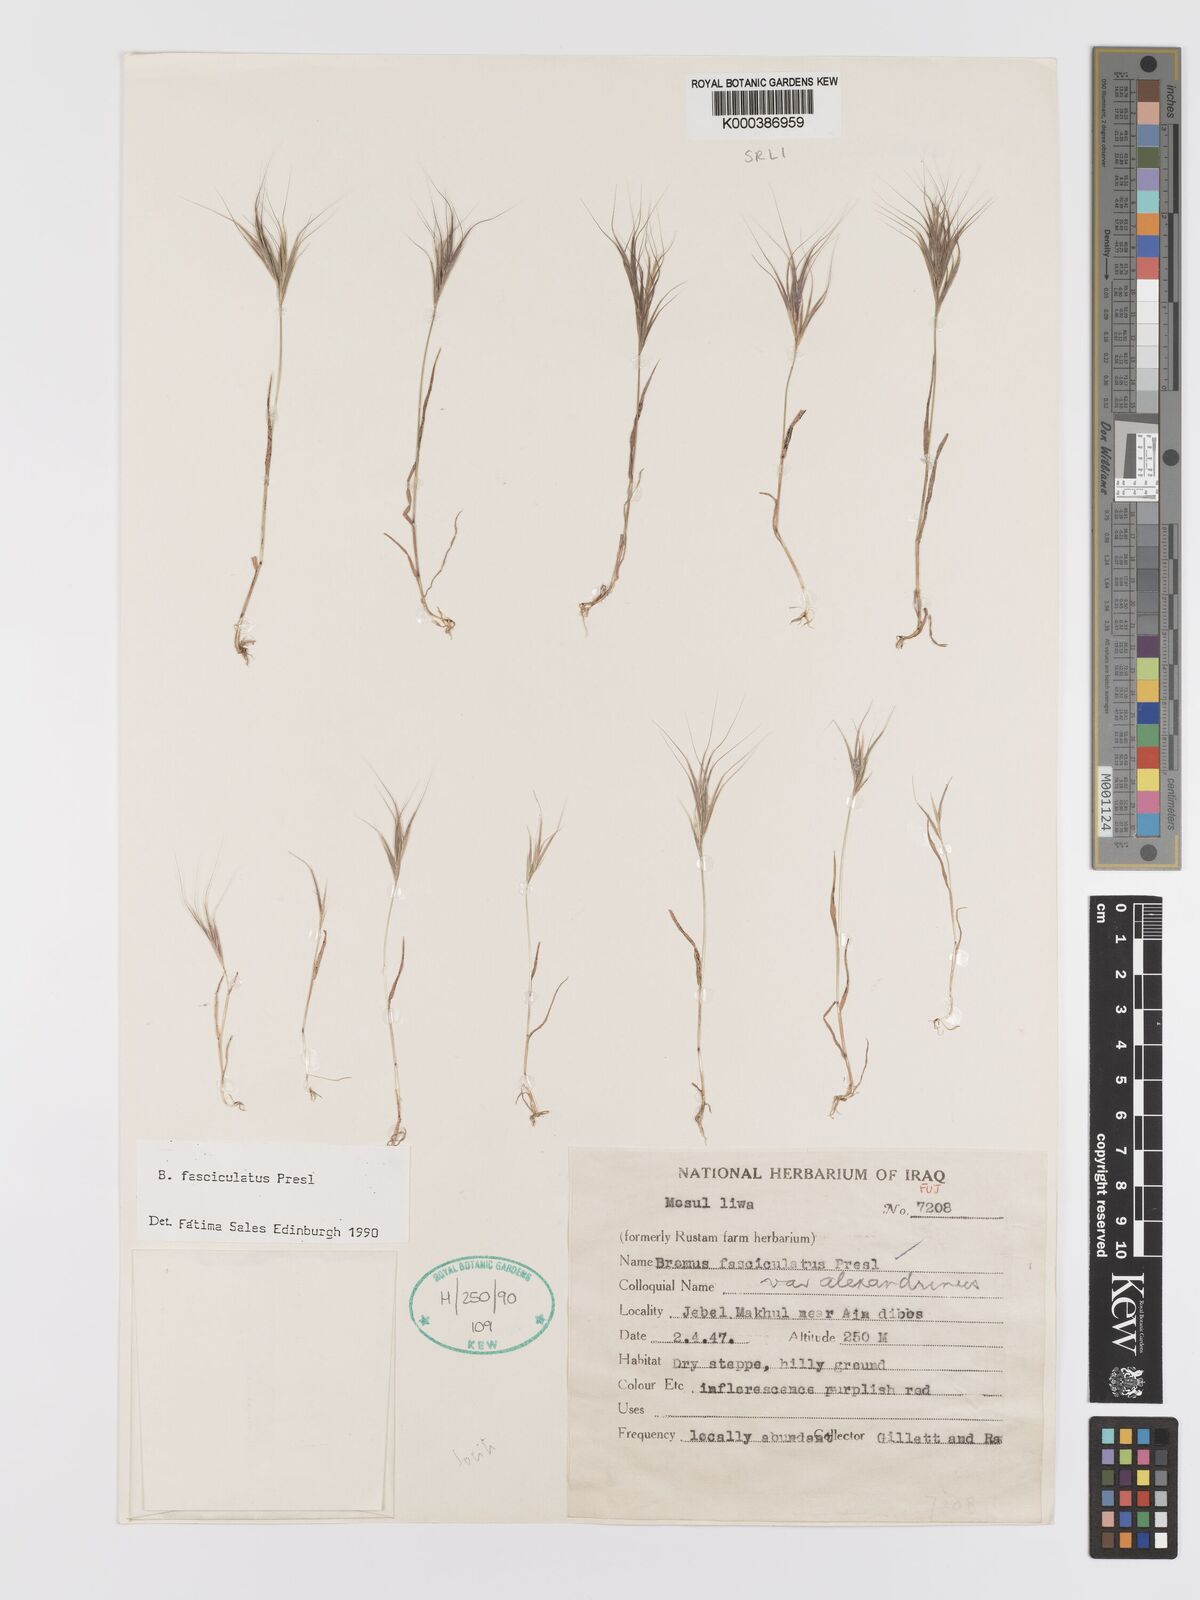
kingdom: Plantae
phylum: Tracheophyta
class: Liliopsida
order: Poales
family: Poaceae
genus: Bromus
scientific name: Bromus fasciculatus
